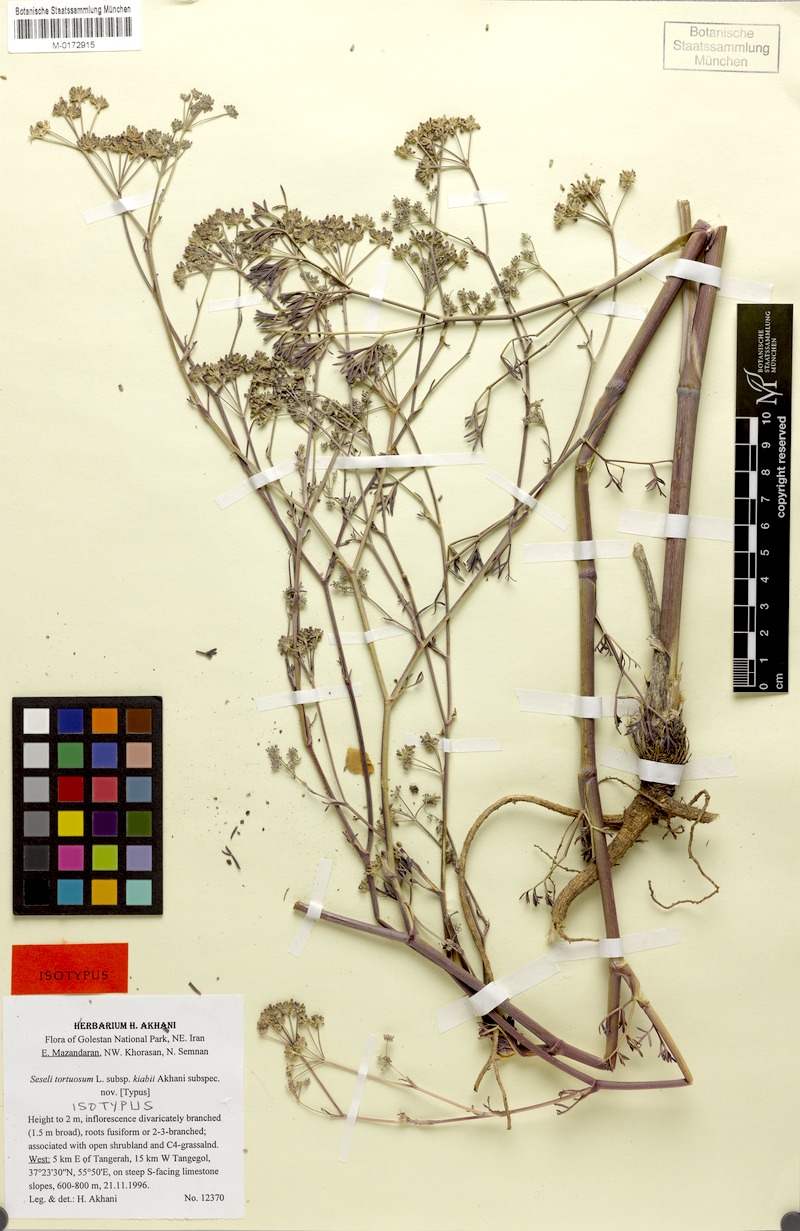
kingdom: Plantae
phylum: Tracheophyta
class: Magnoliopsida
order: Apiales
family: Apiaceae
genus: Seseli
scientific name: Seseli kiabii
